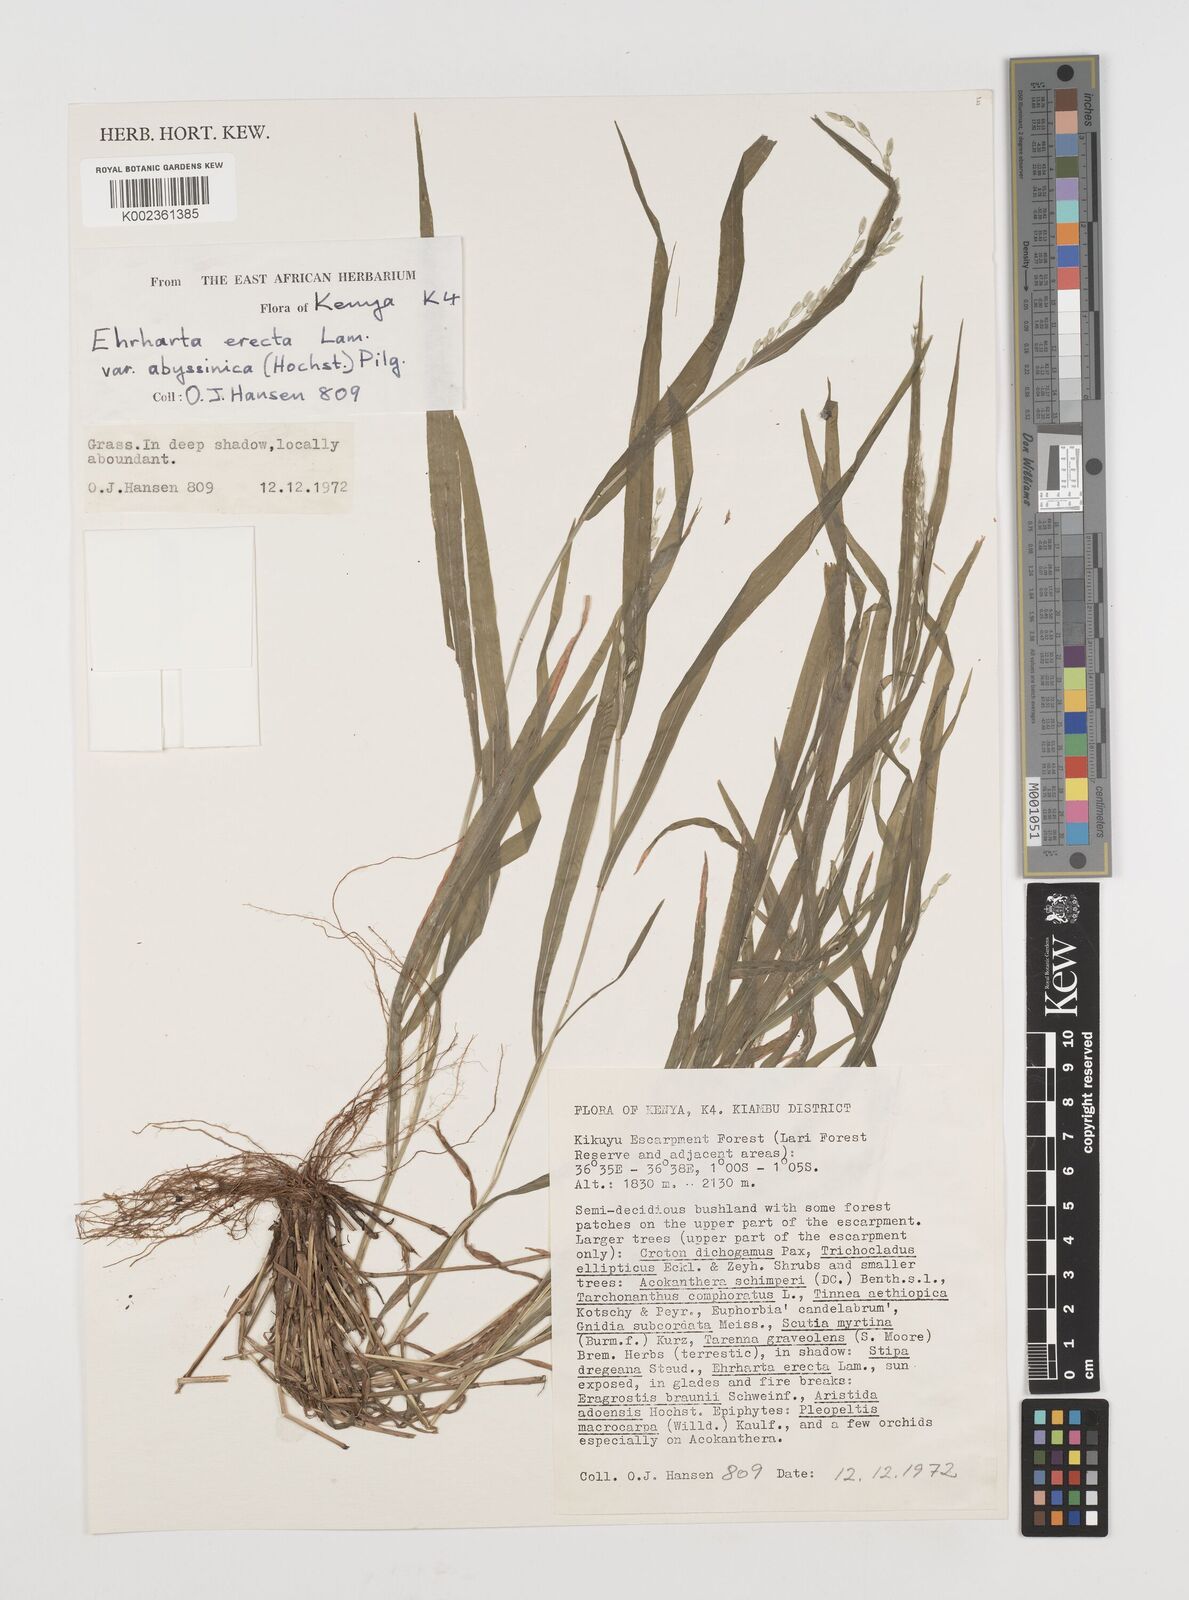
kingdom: Plantae
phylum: Tracheophyta
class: Liliopsida
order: Poales
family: Poaceae
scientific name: Poaceae
